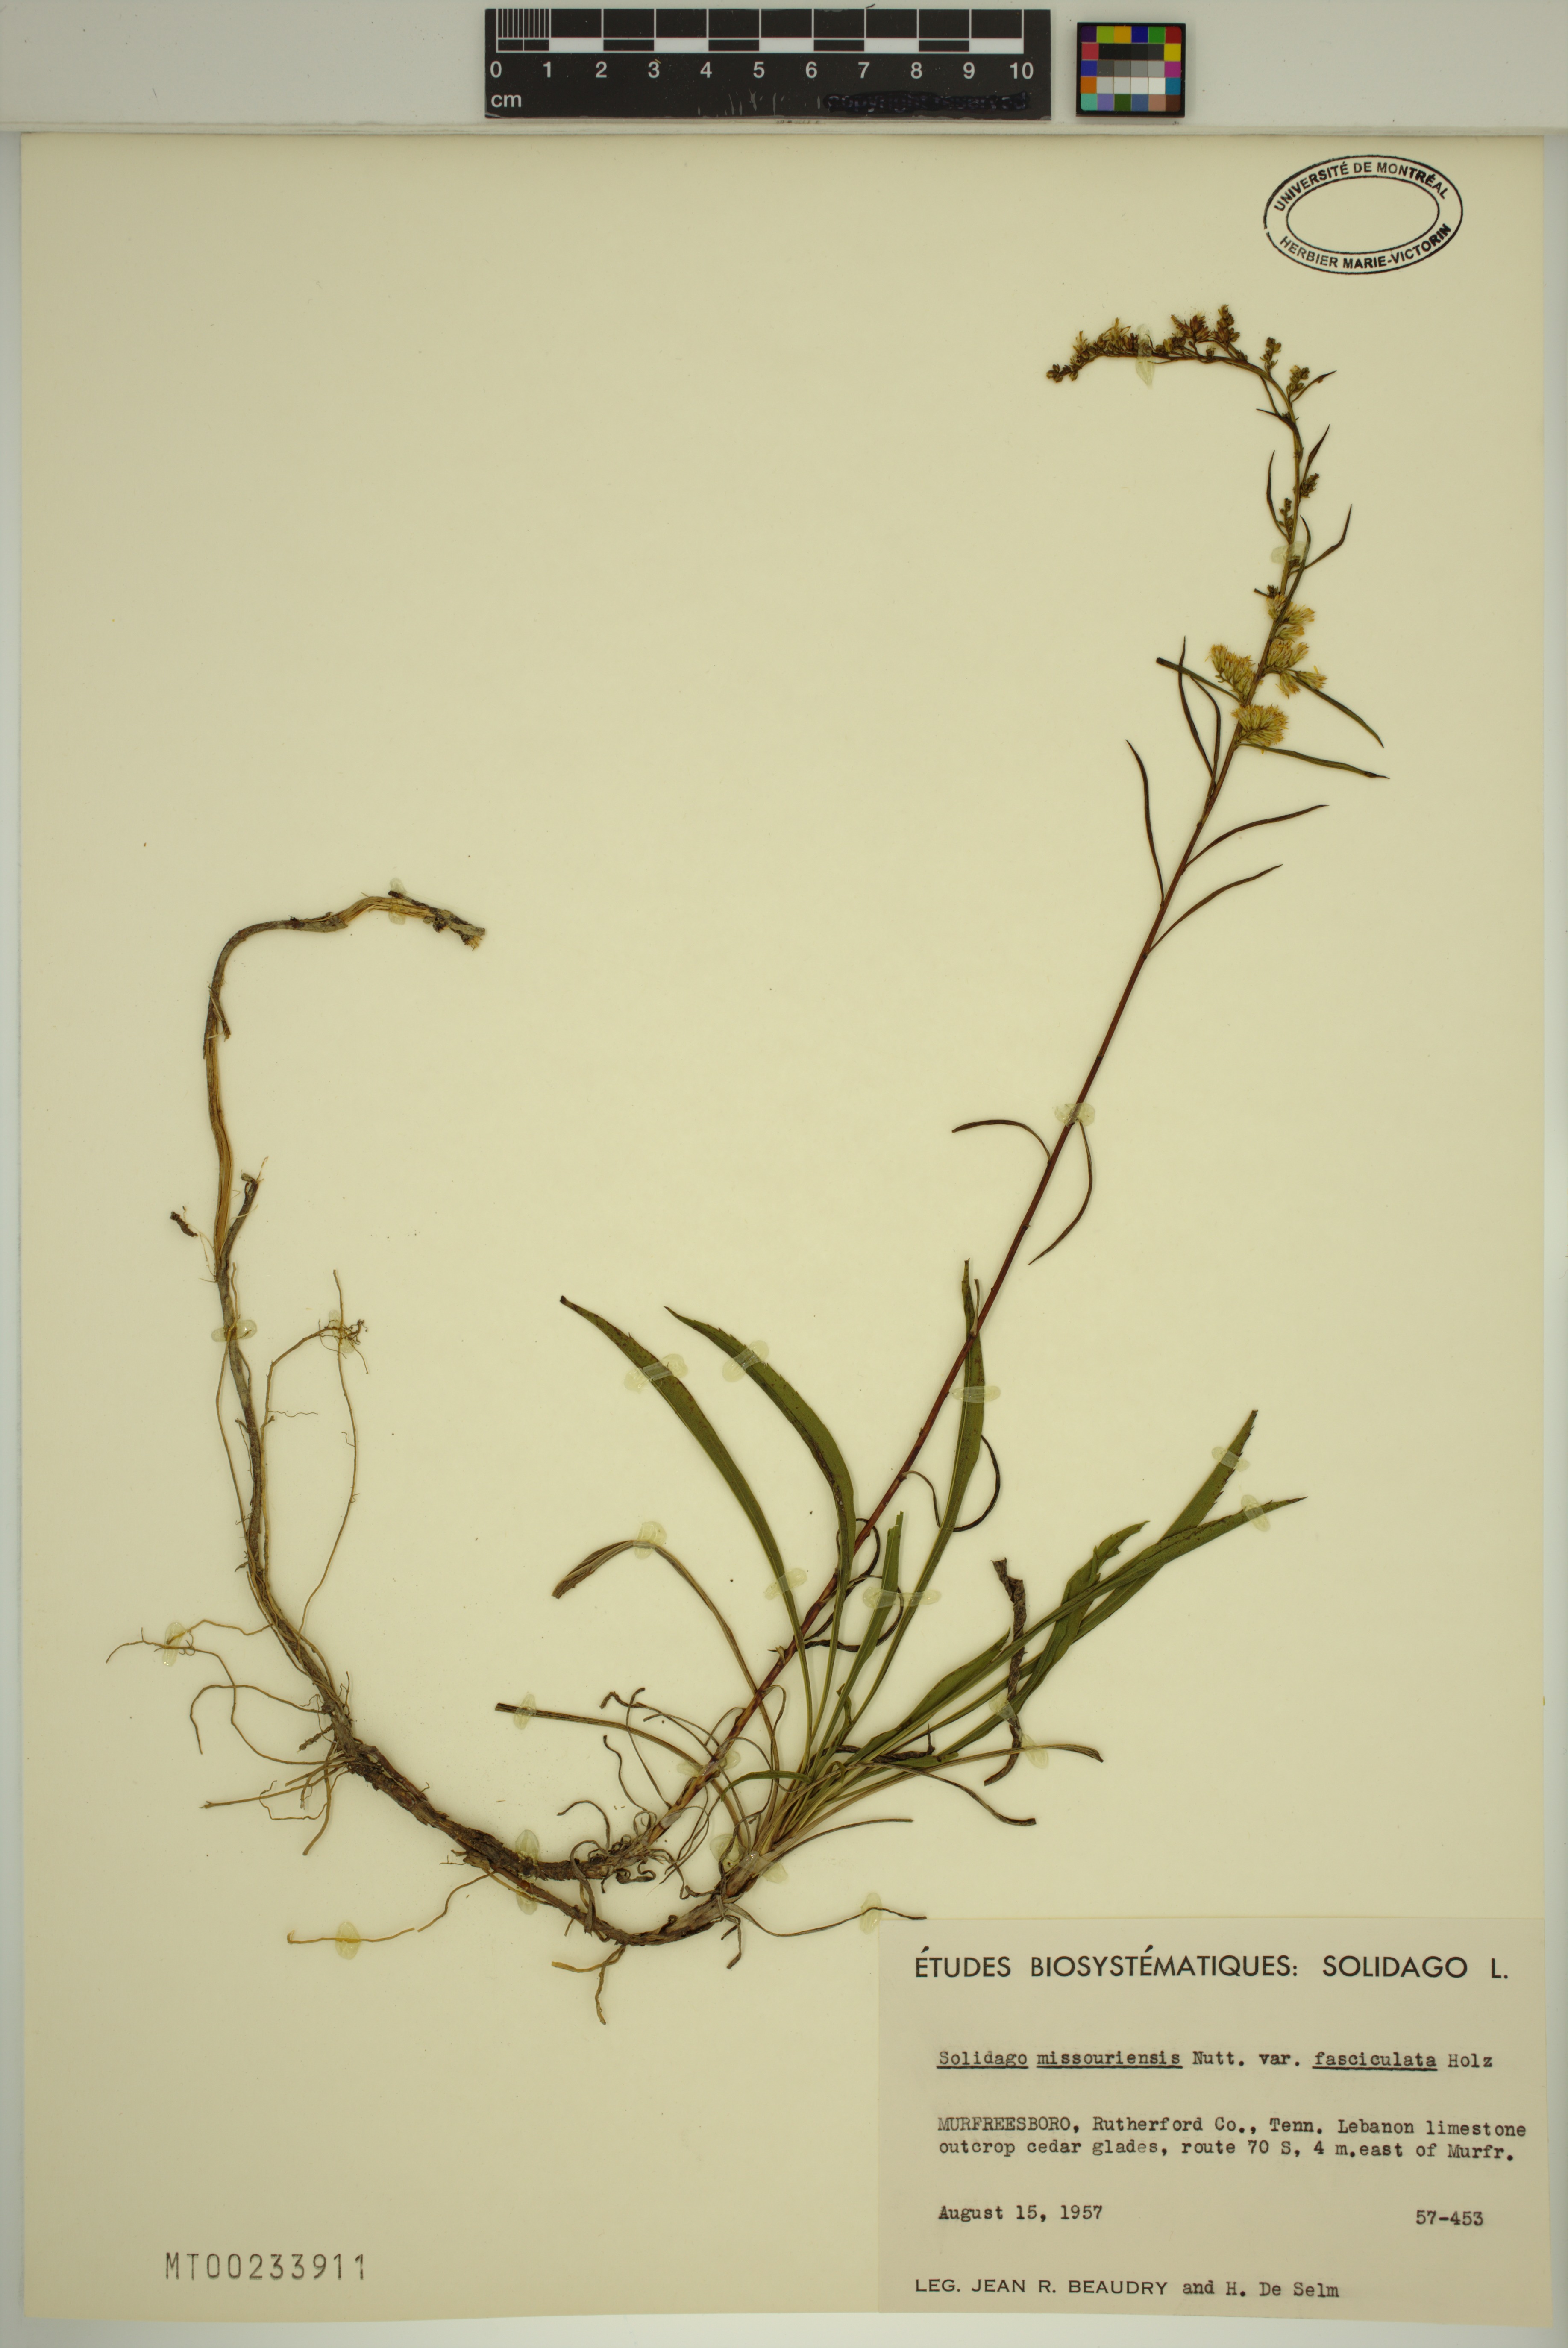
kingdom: Plantae
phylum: Tracheophyta
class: Magnoliopsida
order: Asterales
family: Asteraceae
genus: Solidago
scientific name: Solidago missouriensis
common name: Prairie goldenrod
